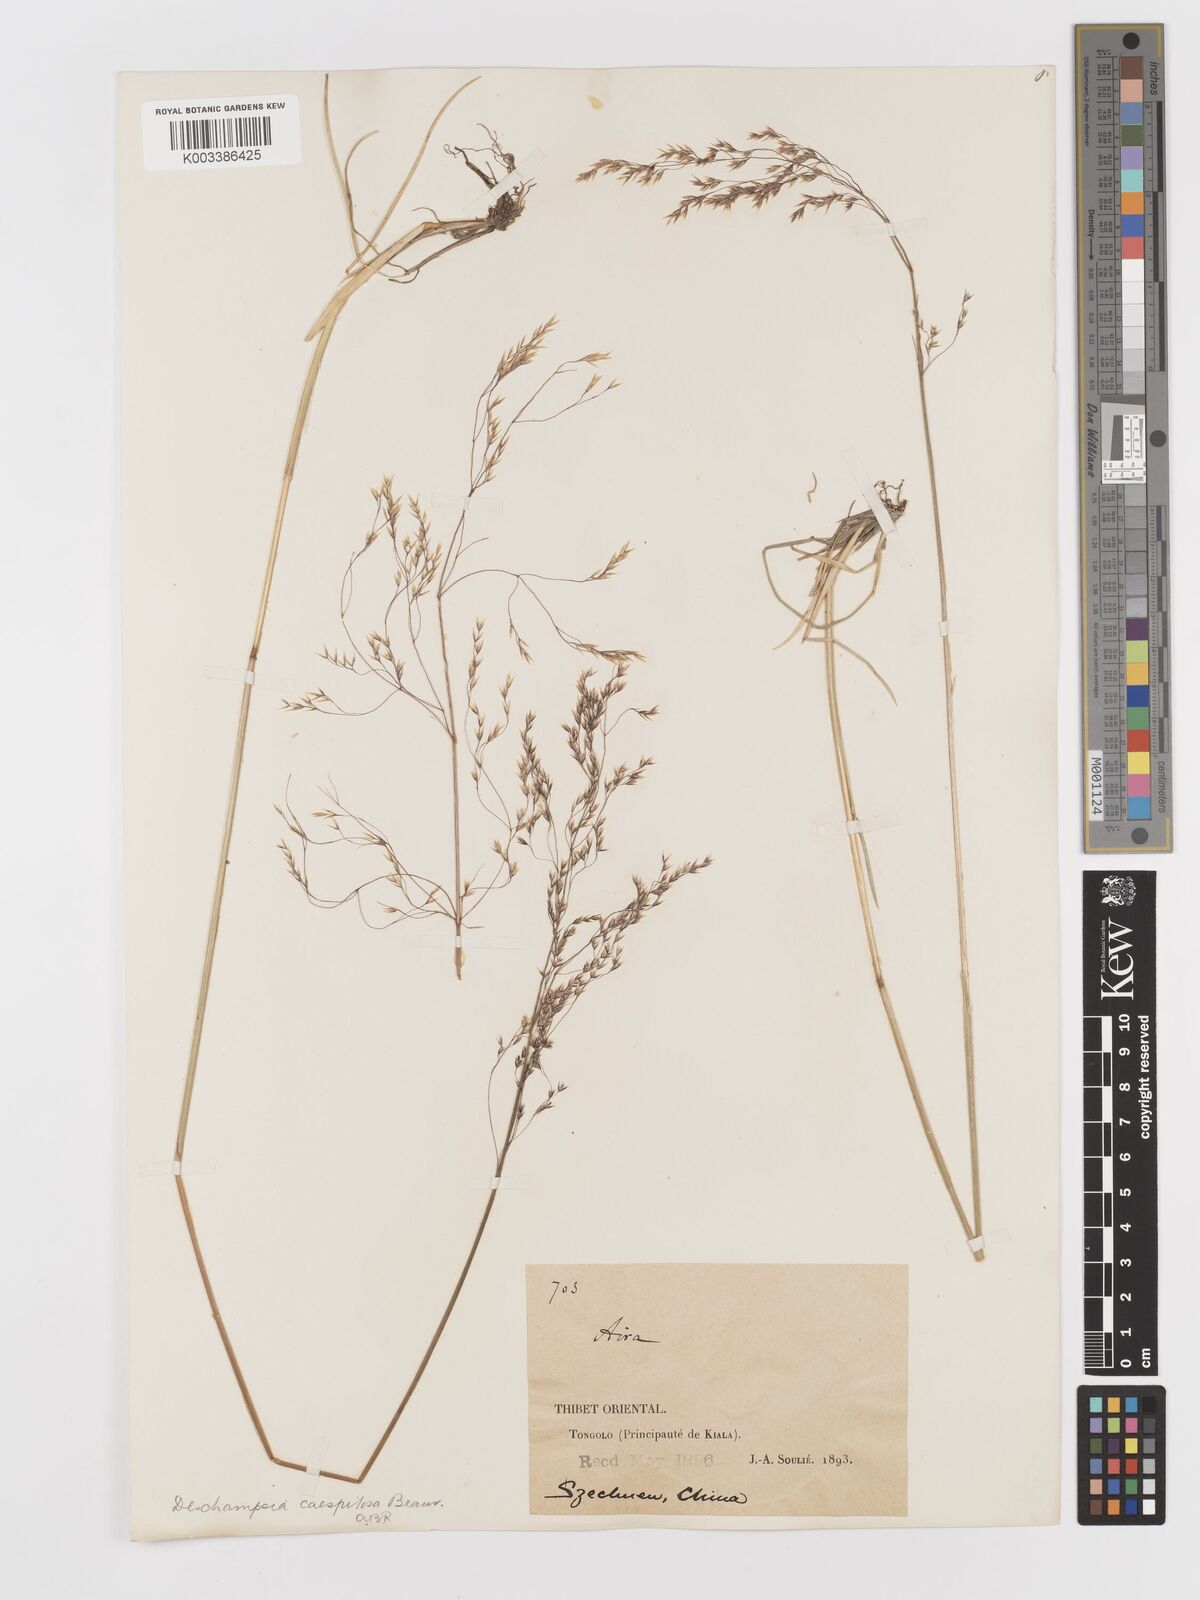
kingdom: Plantae
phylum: Tracheophyta
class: Liliopsida
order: Poales
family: Poaceae
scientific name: Poaceae
